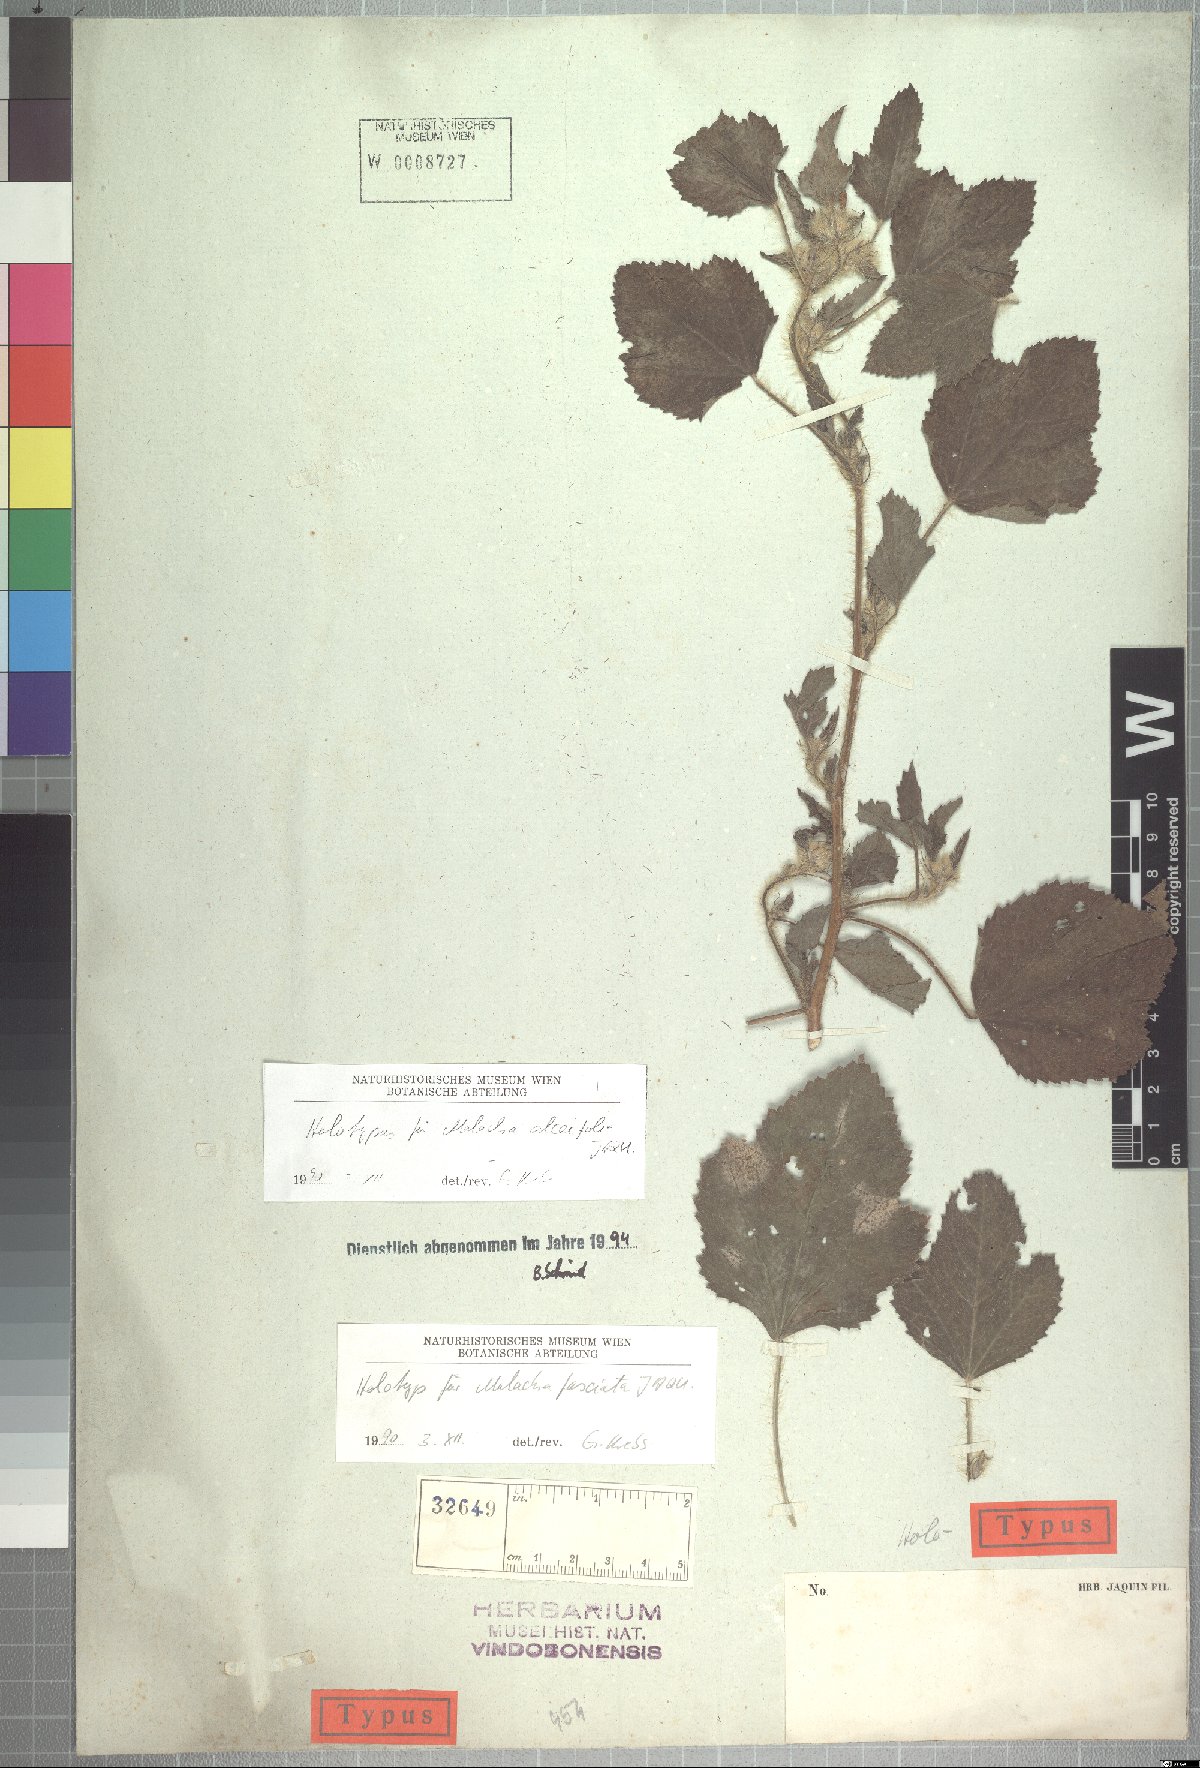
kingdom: Plantae
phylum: Tracheophyta
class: Magnoliopsida
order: Malvales
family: Malvaceae
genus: Malachra
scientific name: Malachra fasciata
